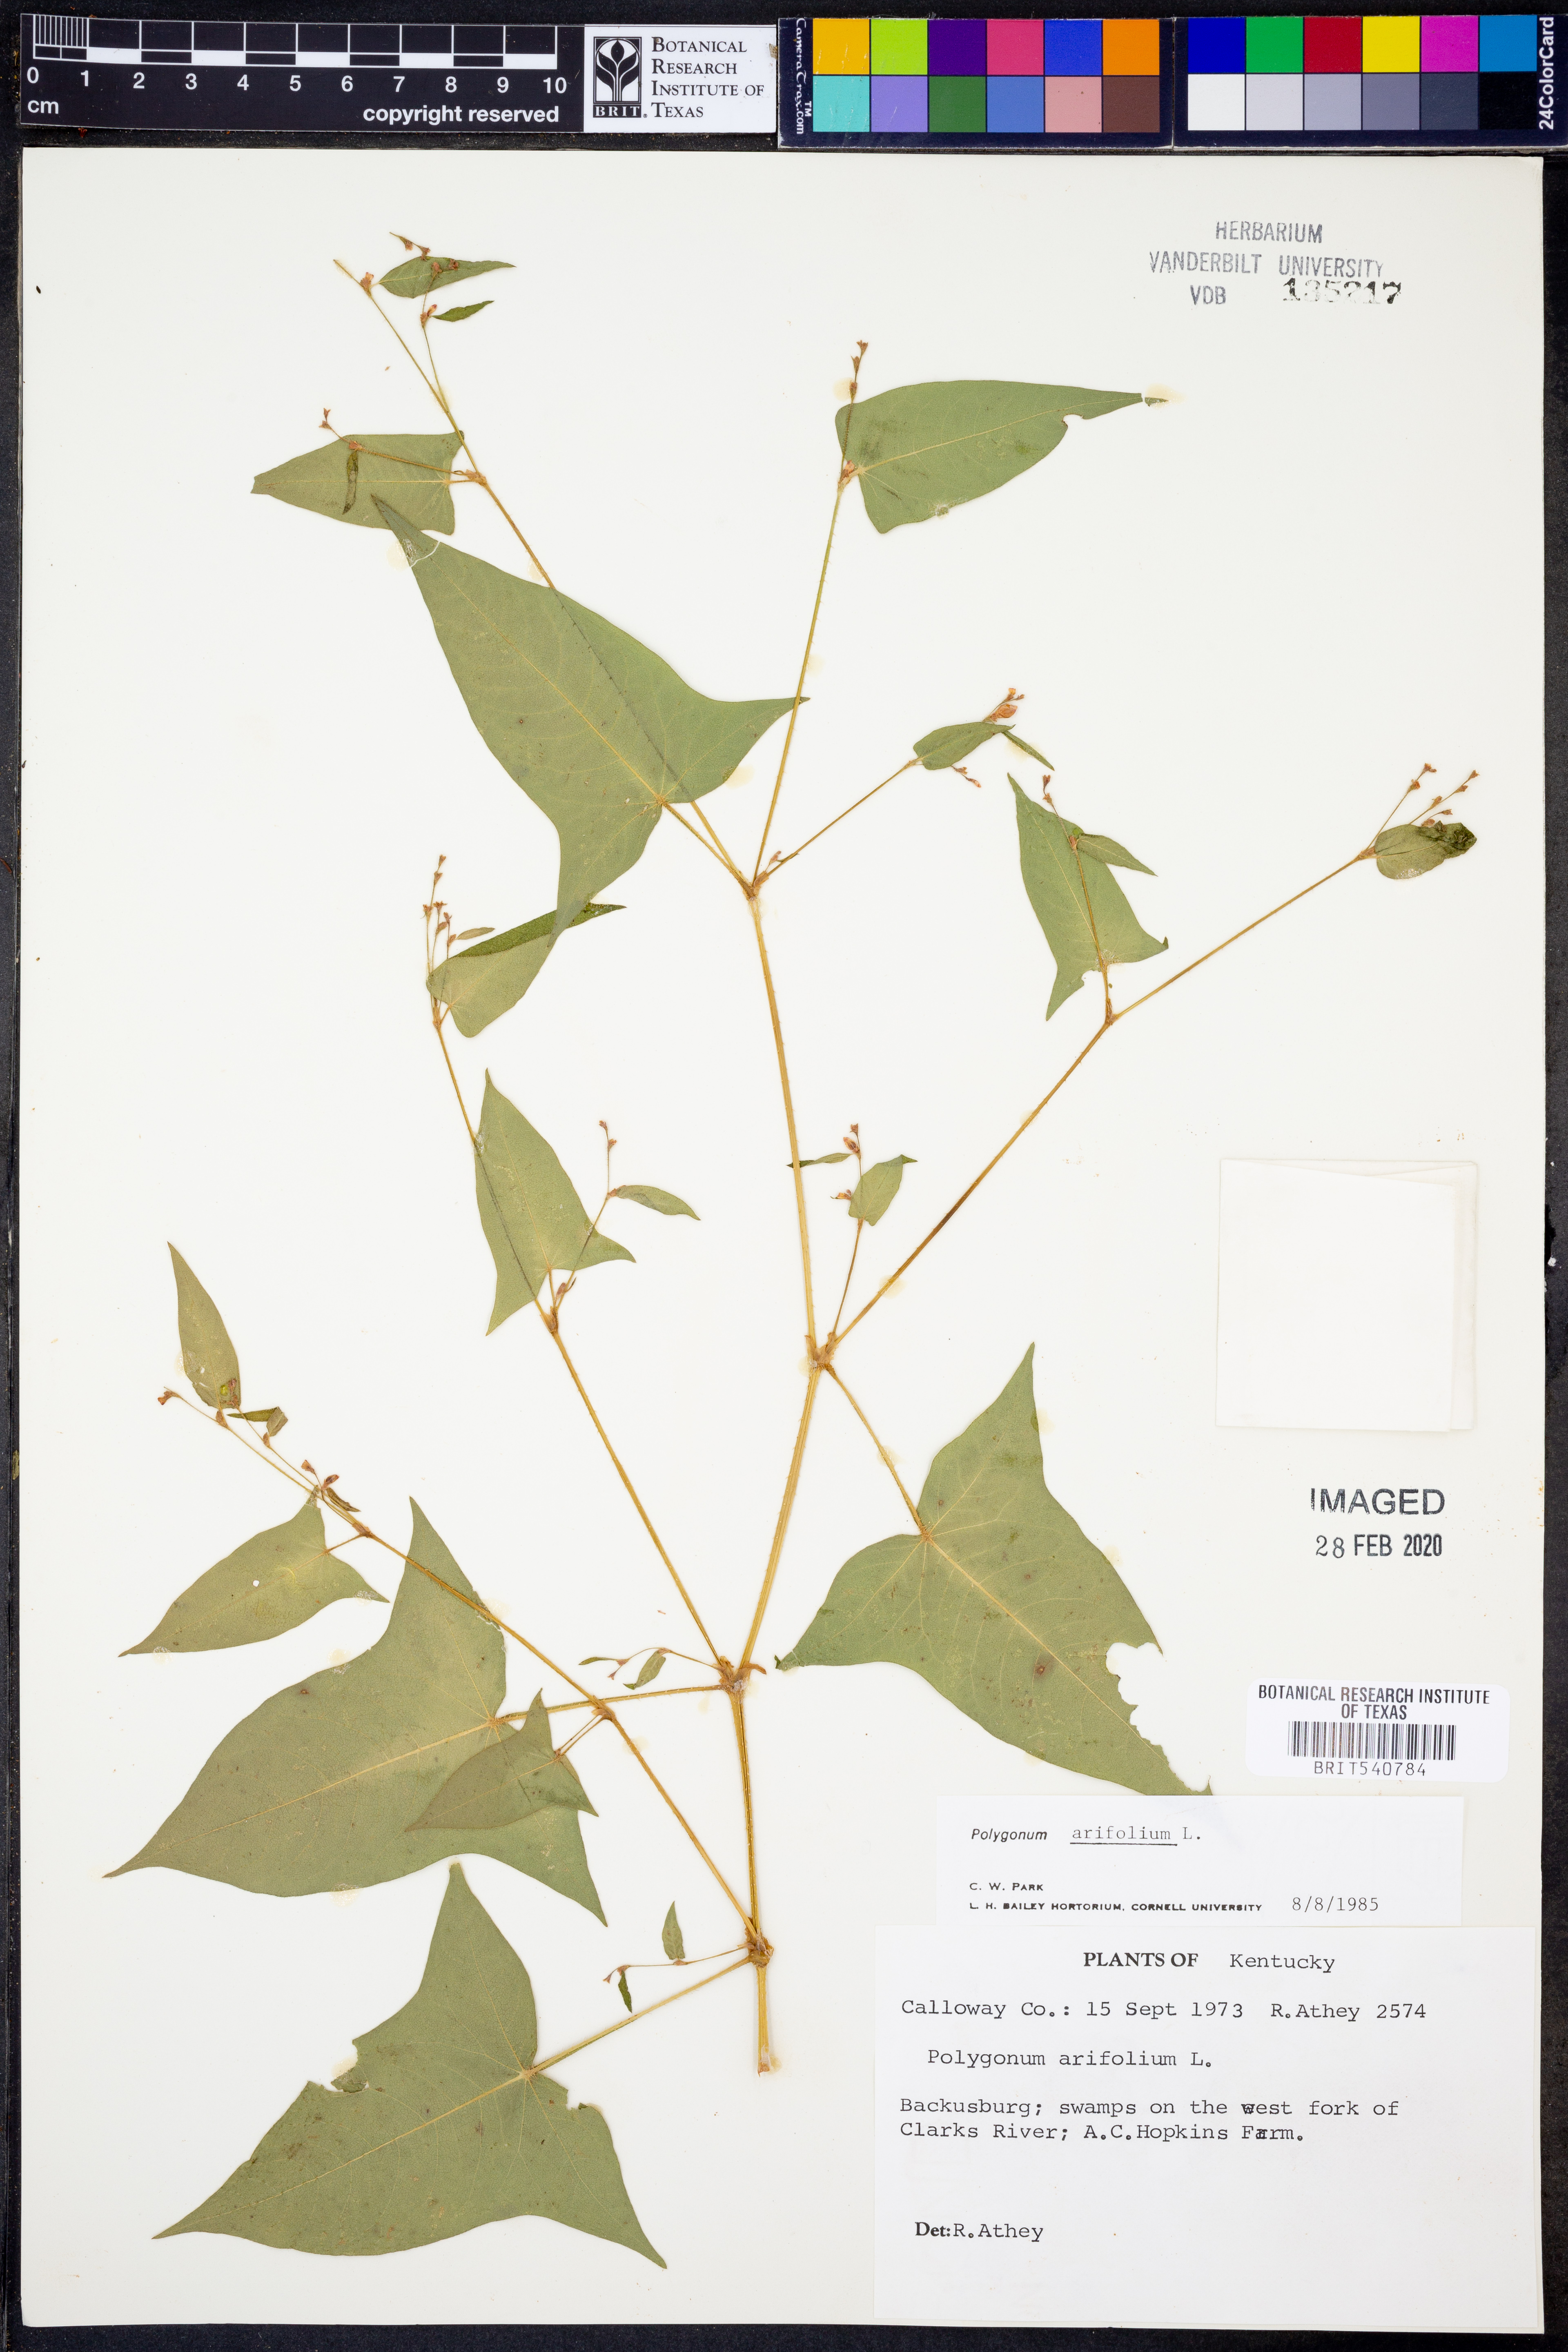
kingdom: Plantae
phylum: Tracheophyta
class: Magnoliopsida
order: Caryophyllales
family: Polygonaceae
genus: Persicaria
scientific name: Persicaria arifolia
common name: Halberd-leaved tear-thumb
